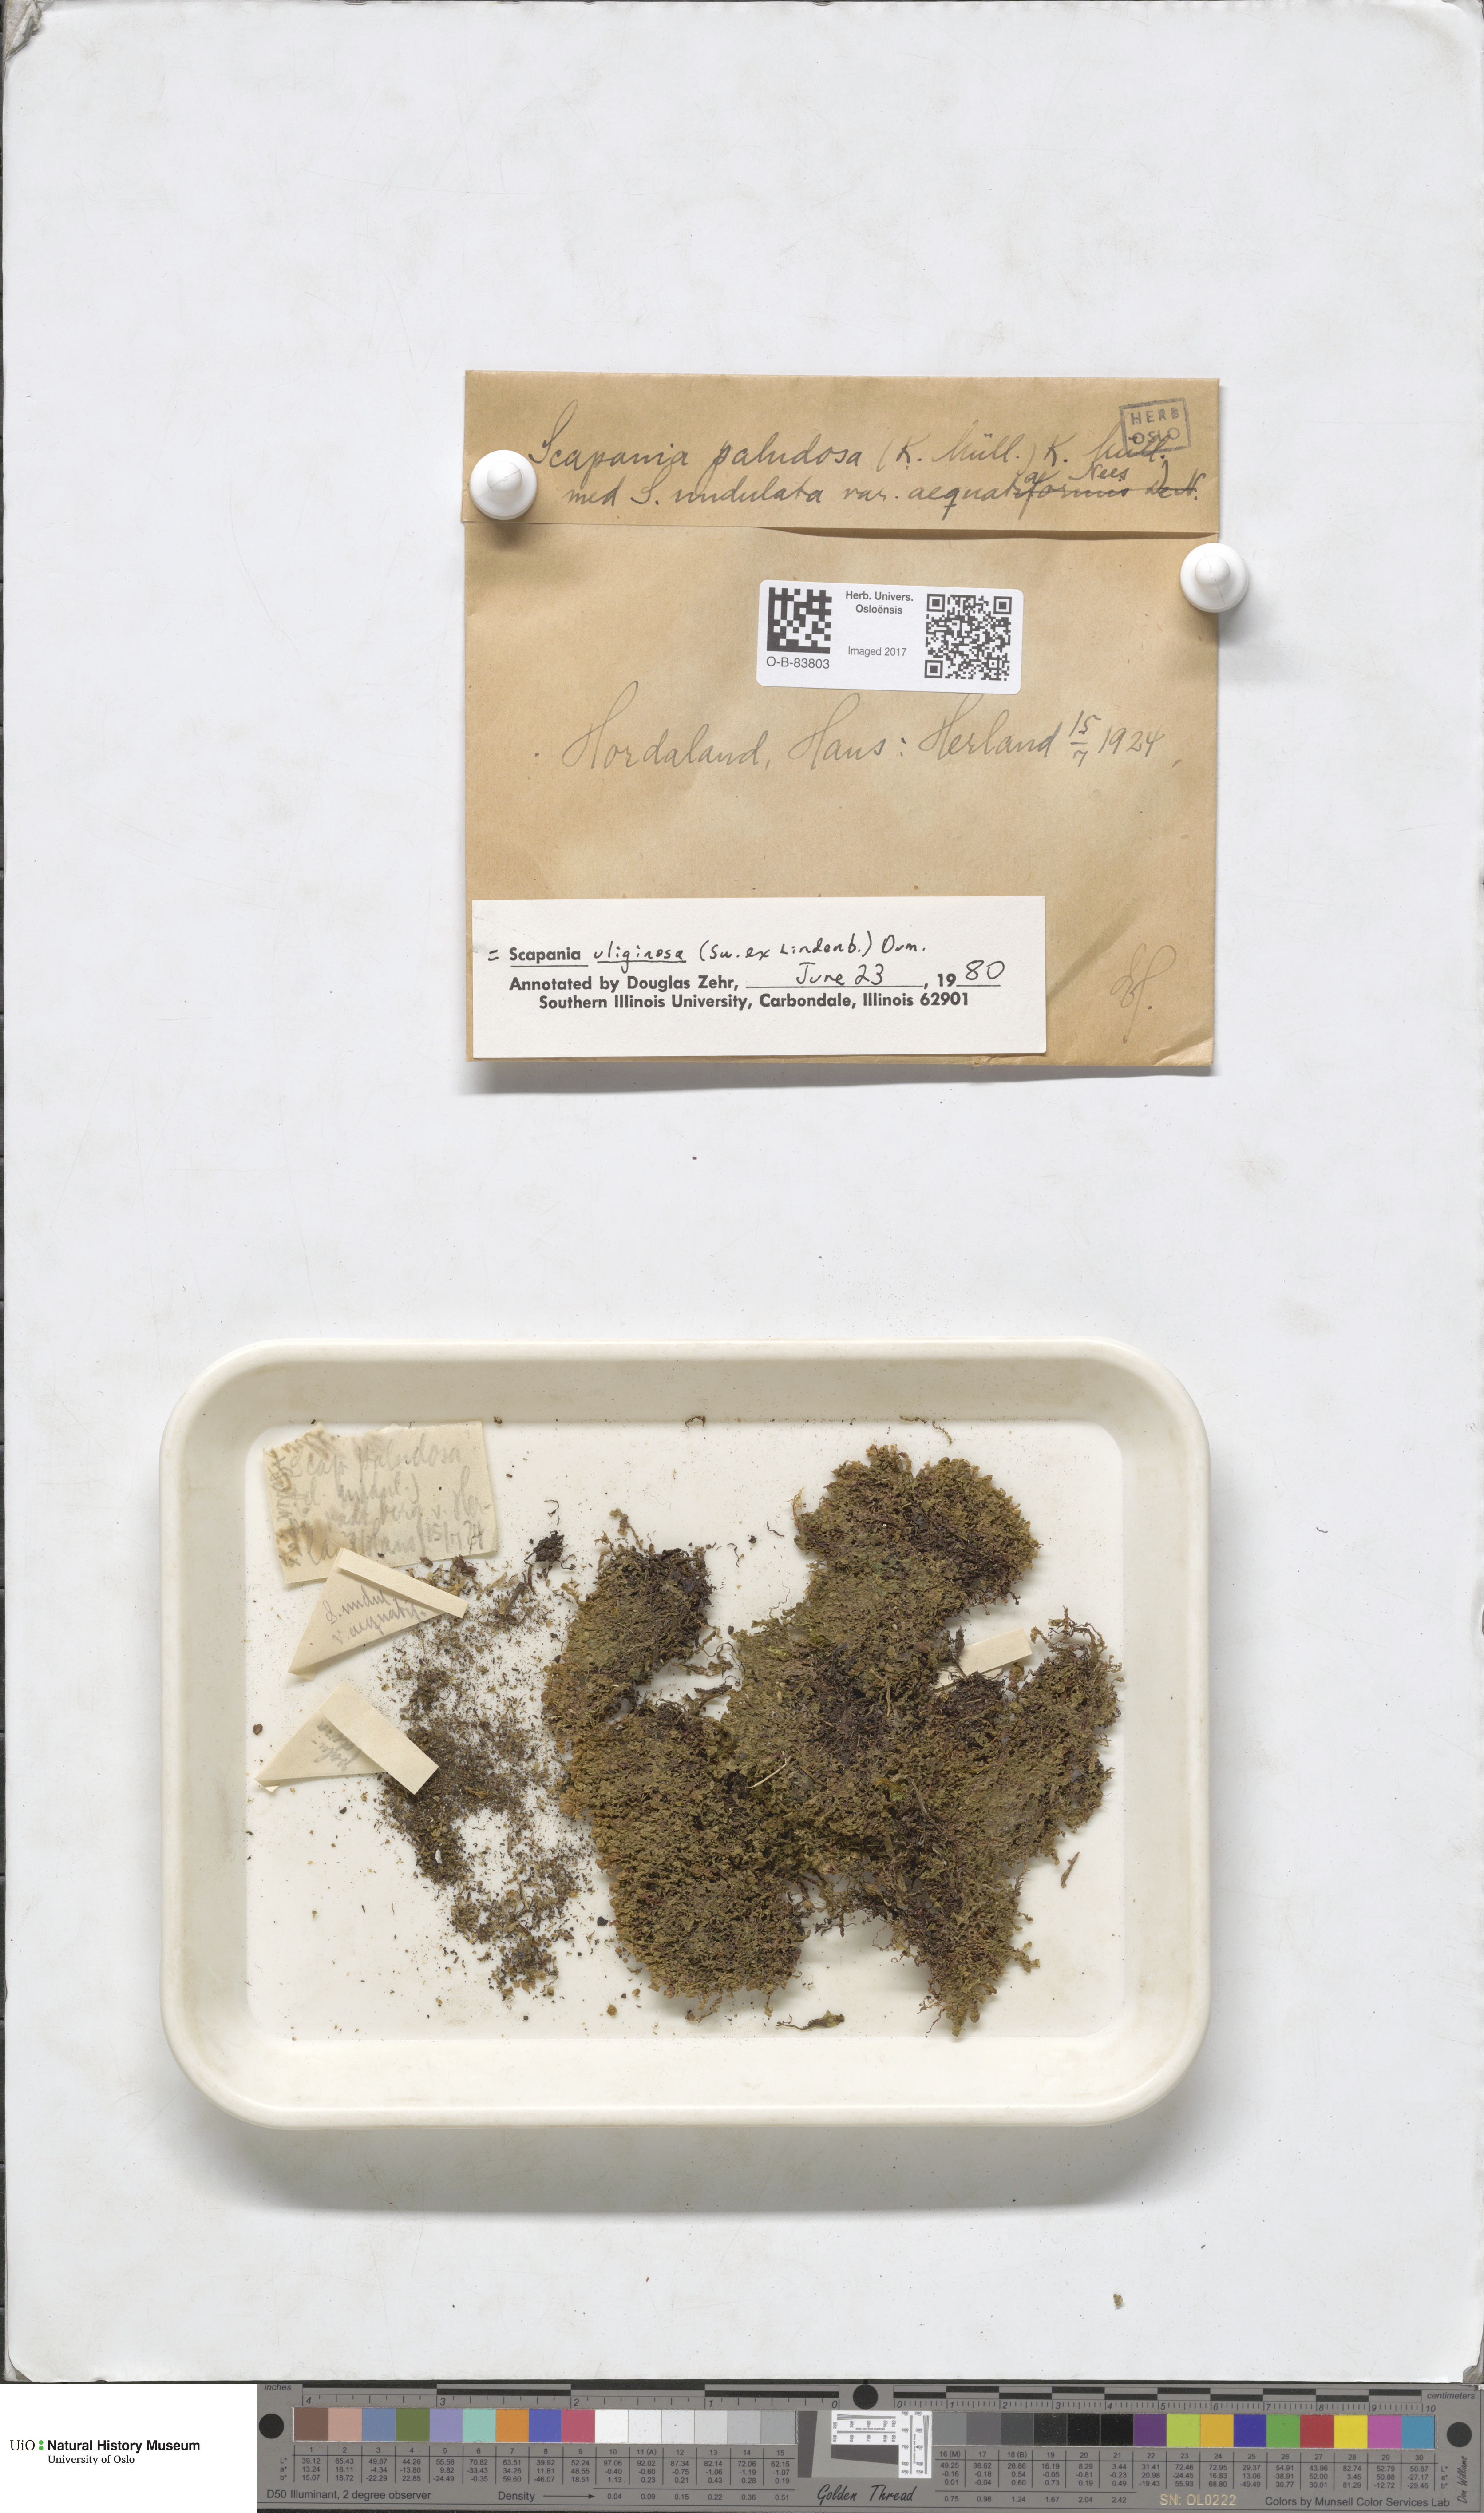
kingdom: Plantae
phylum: Marchantiophyta
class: Jungermanniopsida
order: Jungermanniales
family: Scapaniaceae
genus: Scapania
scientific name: Scapania uliginosa
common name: Marsh earwort
